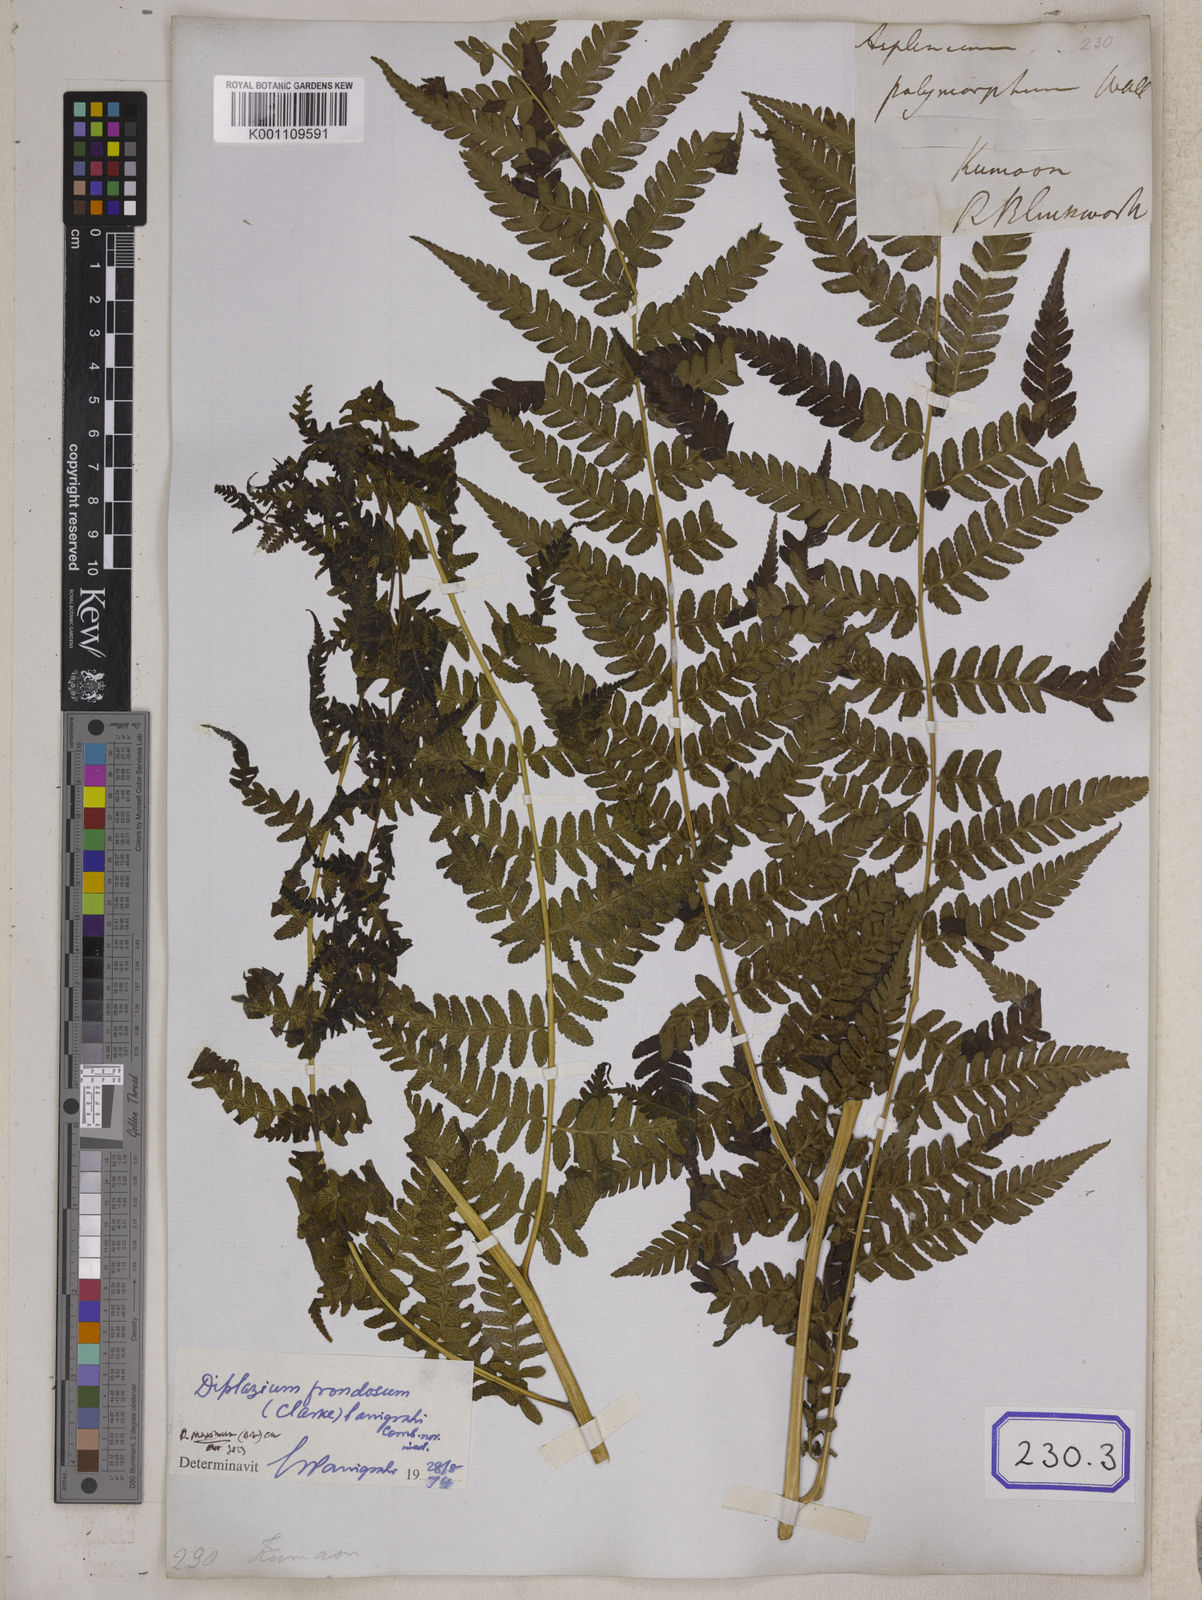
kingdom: Plantae
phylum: Tracheophyta
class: Polypodiopsida
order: Polypodiales
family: Athyriaceae
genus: Diplazium
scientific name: Diplazium maximum
